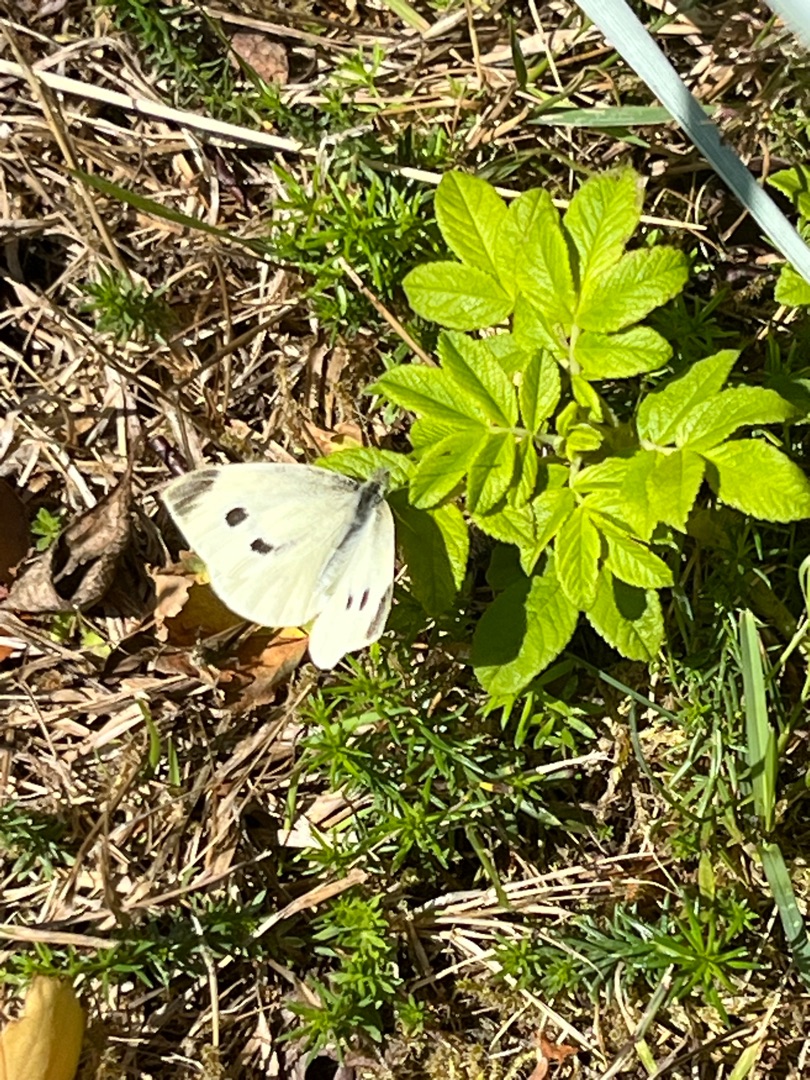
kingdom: Animalia
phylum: Arthropoda
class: Insecta
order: Lepidoptera
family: Pieridae
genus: Pieris
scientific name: Pieris rapae
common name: Lille kålsommerfugl
